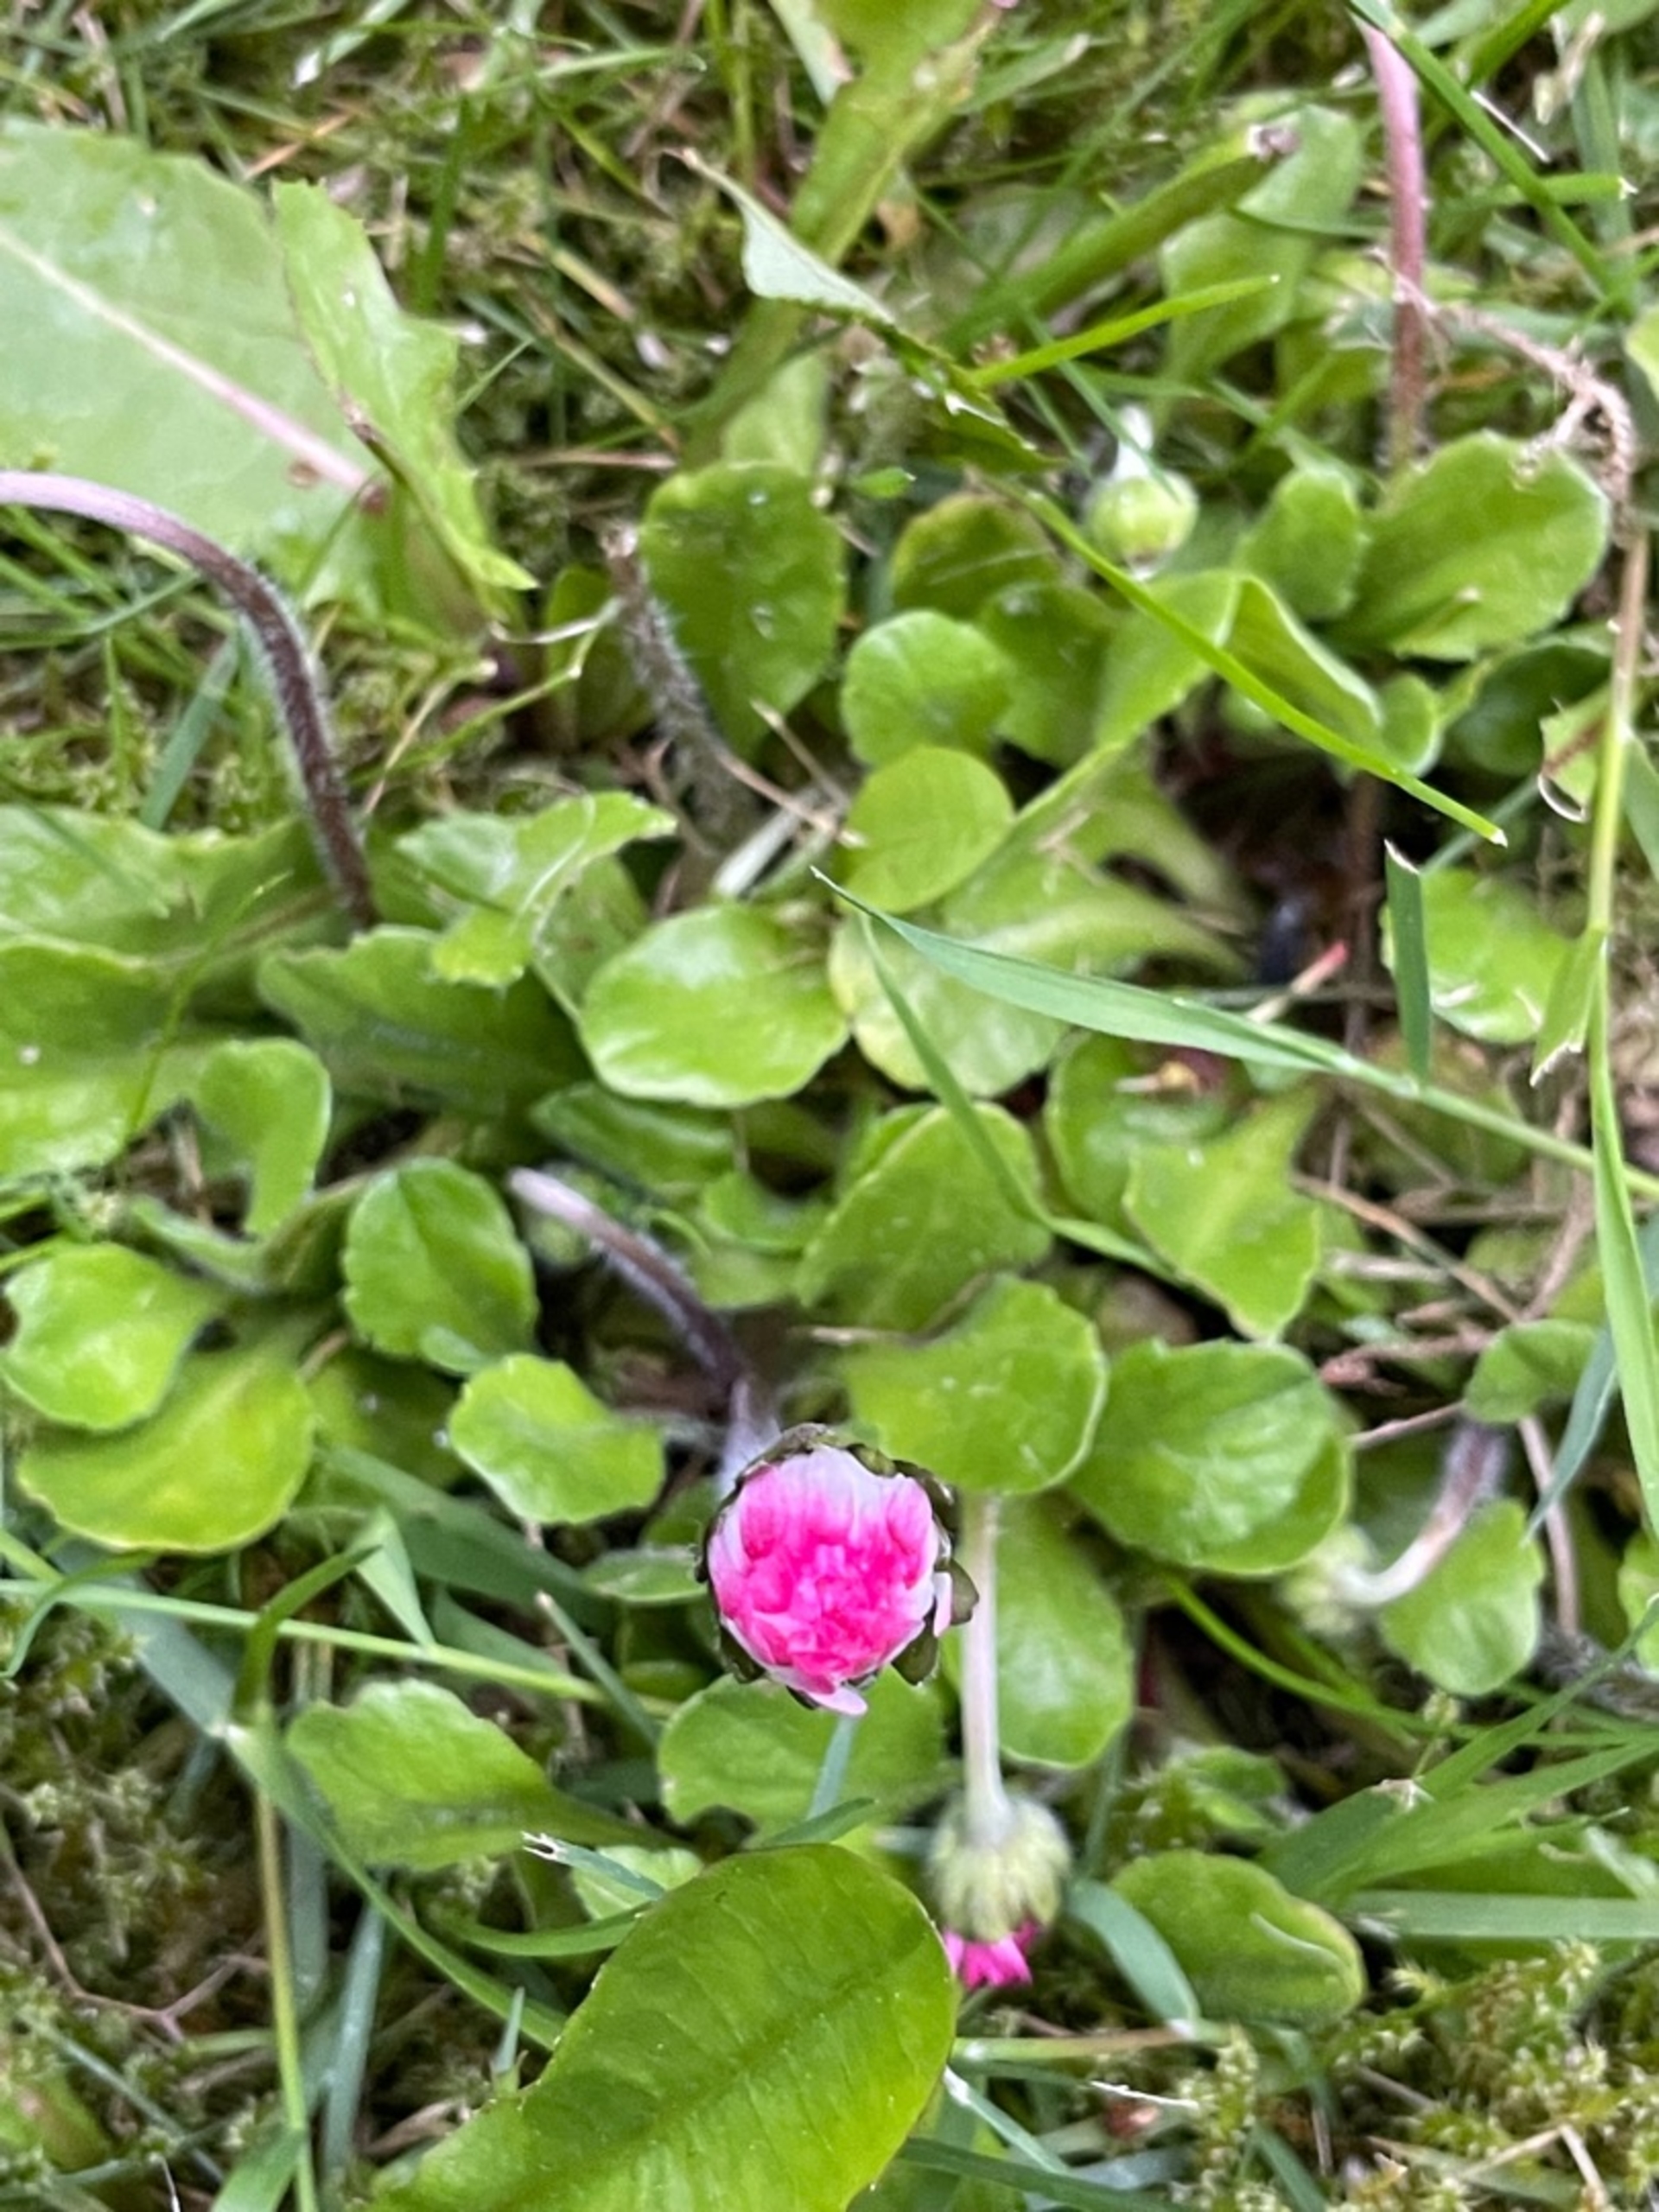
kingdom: Plantae
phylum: Tracheophyta
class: Magnoliopsida
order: Asterales
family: Asteraceae
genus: Bellis
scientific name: Bellis perennis
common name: Tusindfryd
